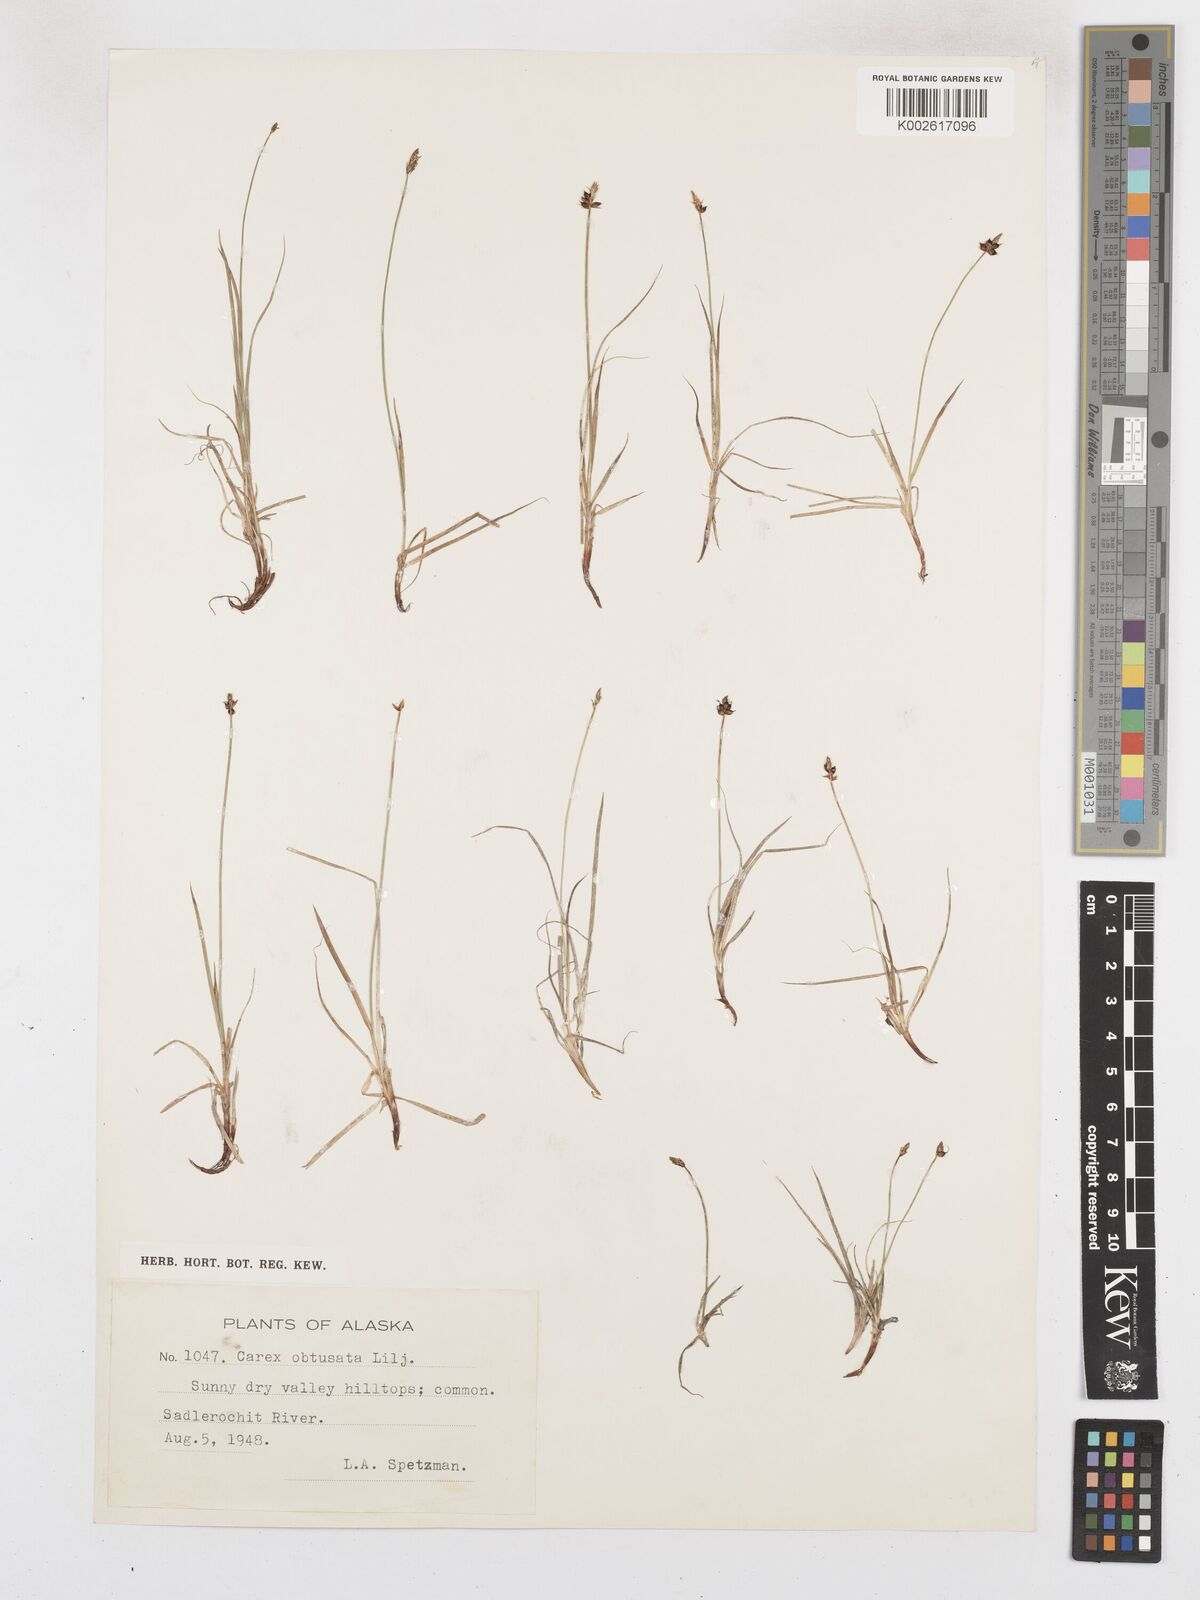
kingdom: Plantae
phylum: Tracheophyta
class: Liliopsida
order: Poales
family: Cyperaceae
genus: Carex
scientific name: Carex obtusata
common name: Blunt sedge
